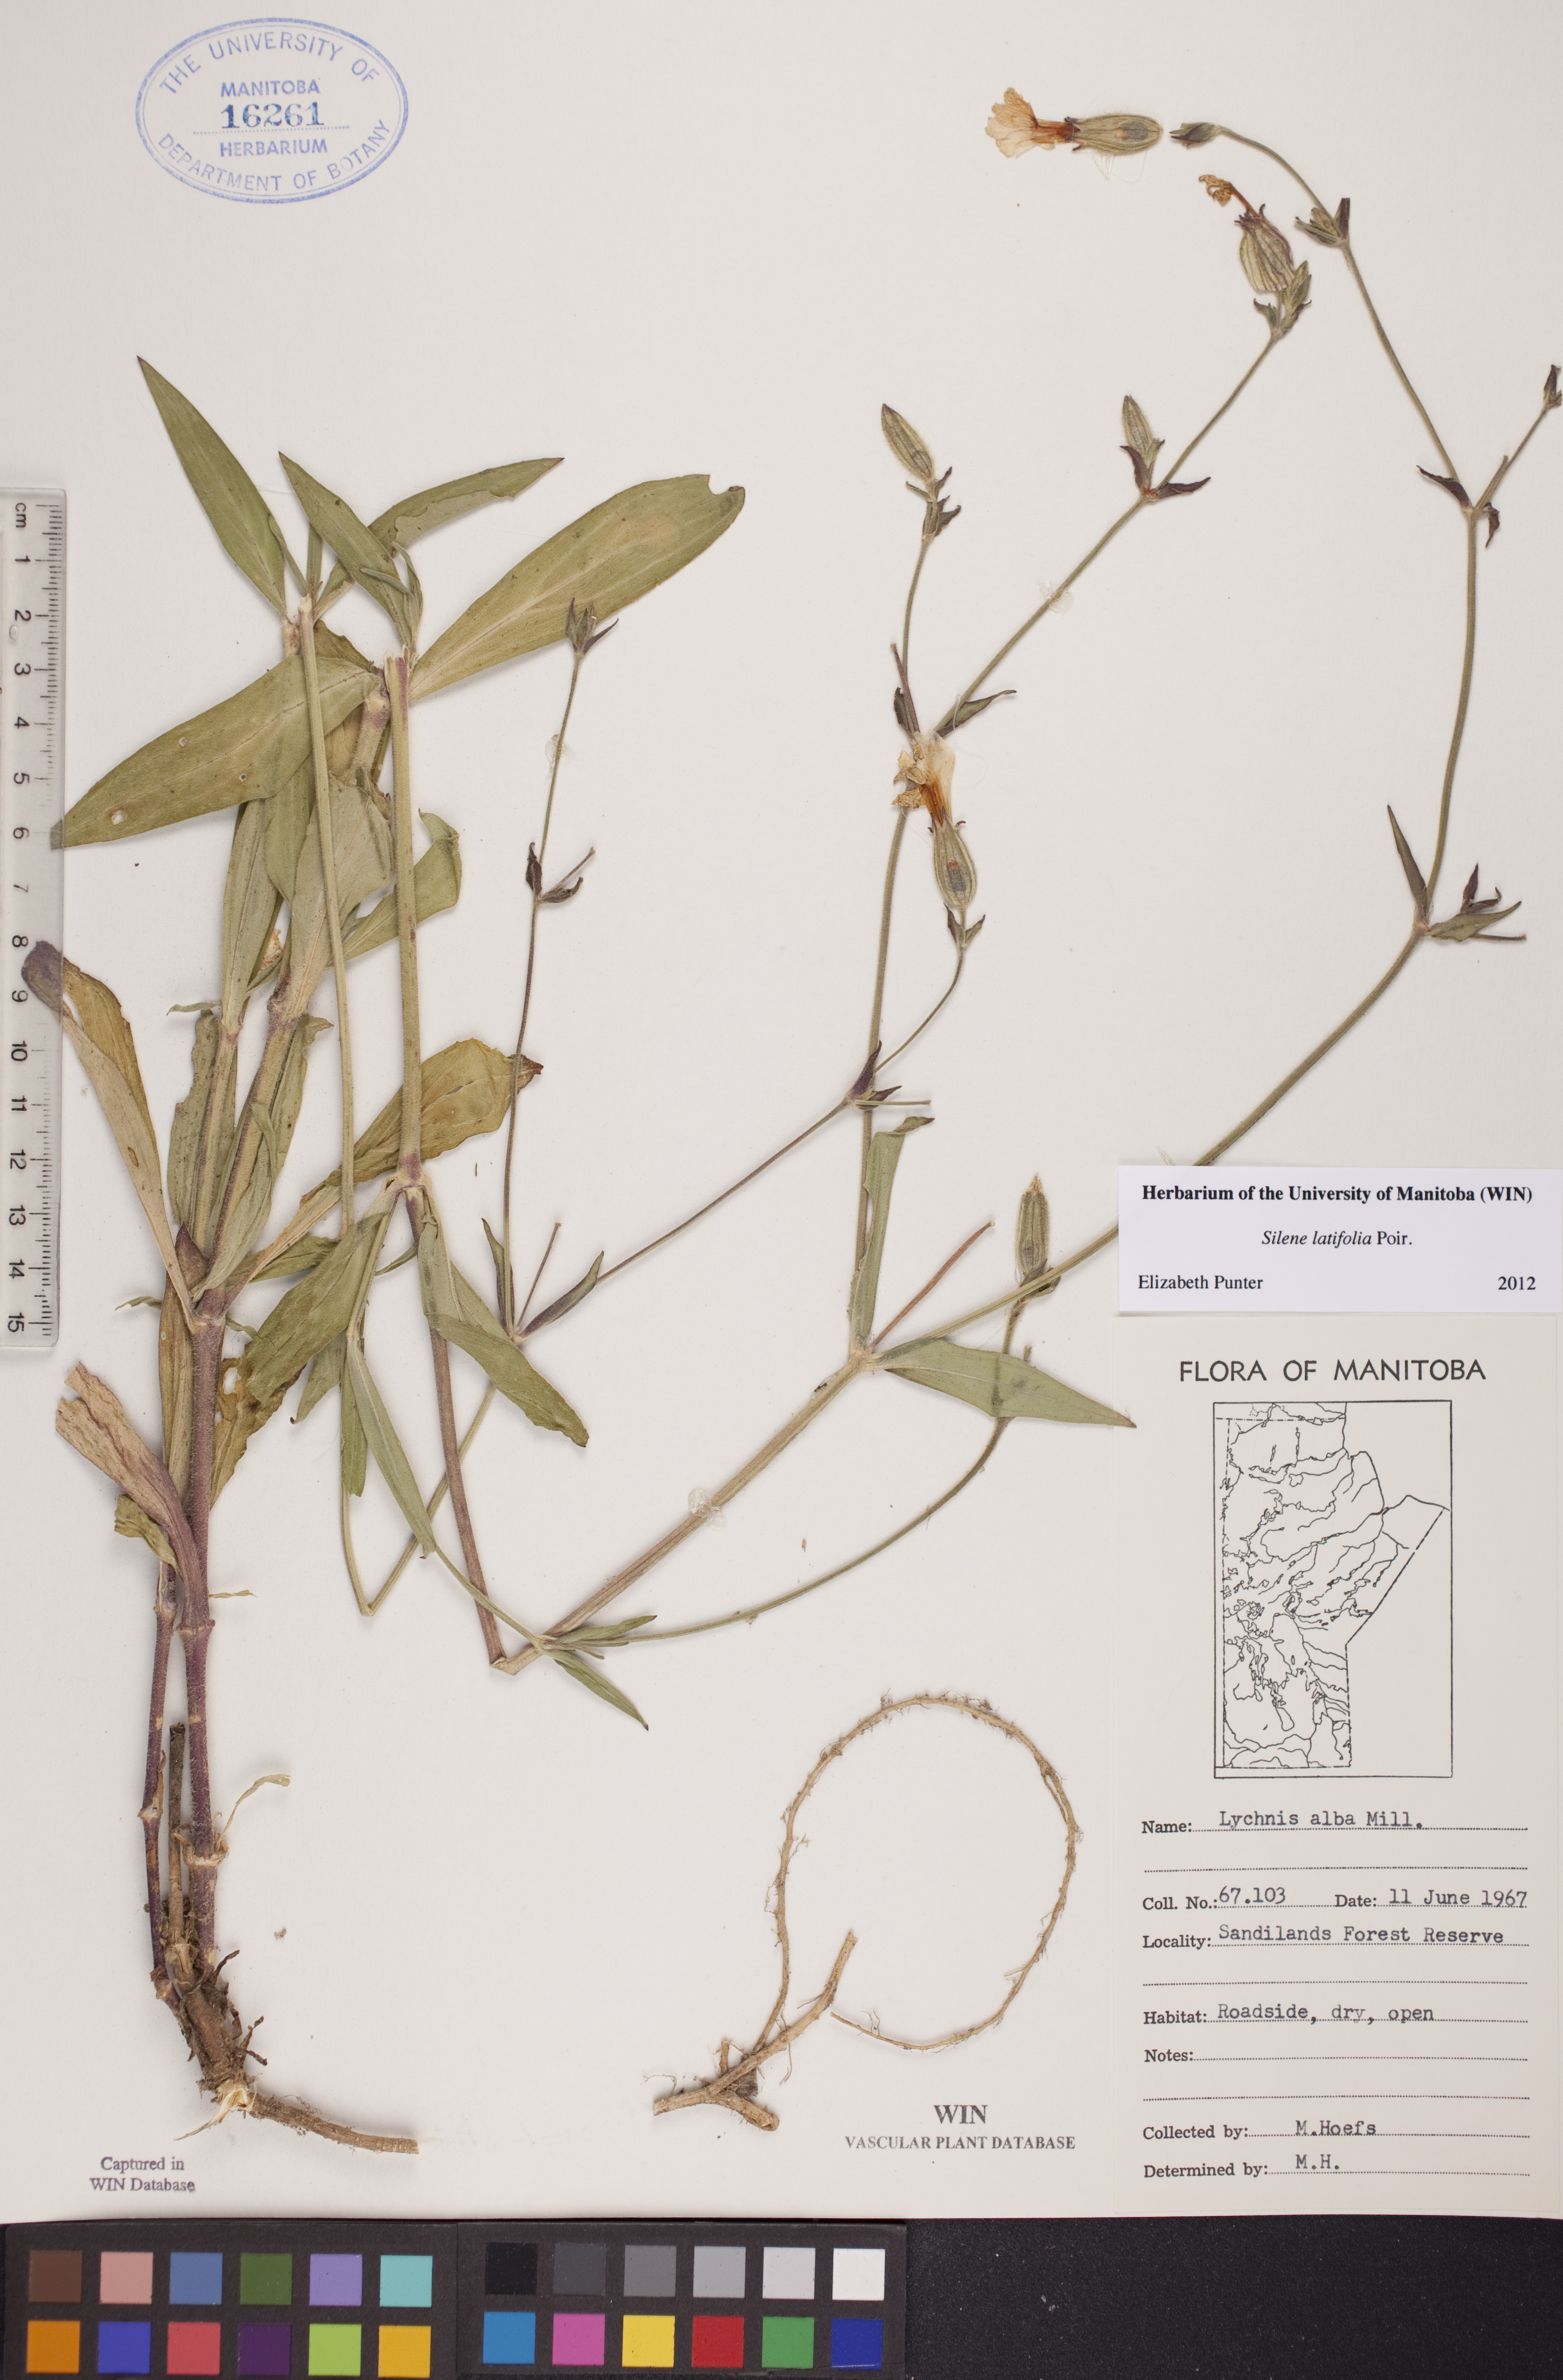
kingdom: Plantae
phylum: Tracheophyta
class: Magnoliopsida
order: Caryophyllales
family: Caryophyllaceae
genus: Silene
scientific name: Silene latifolia
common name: White campion
